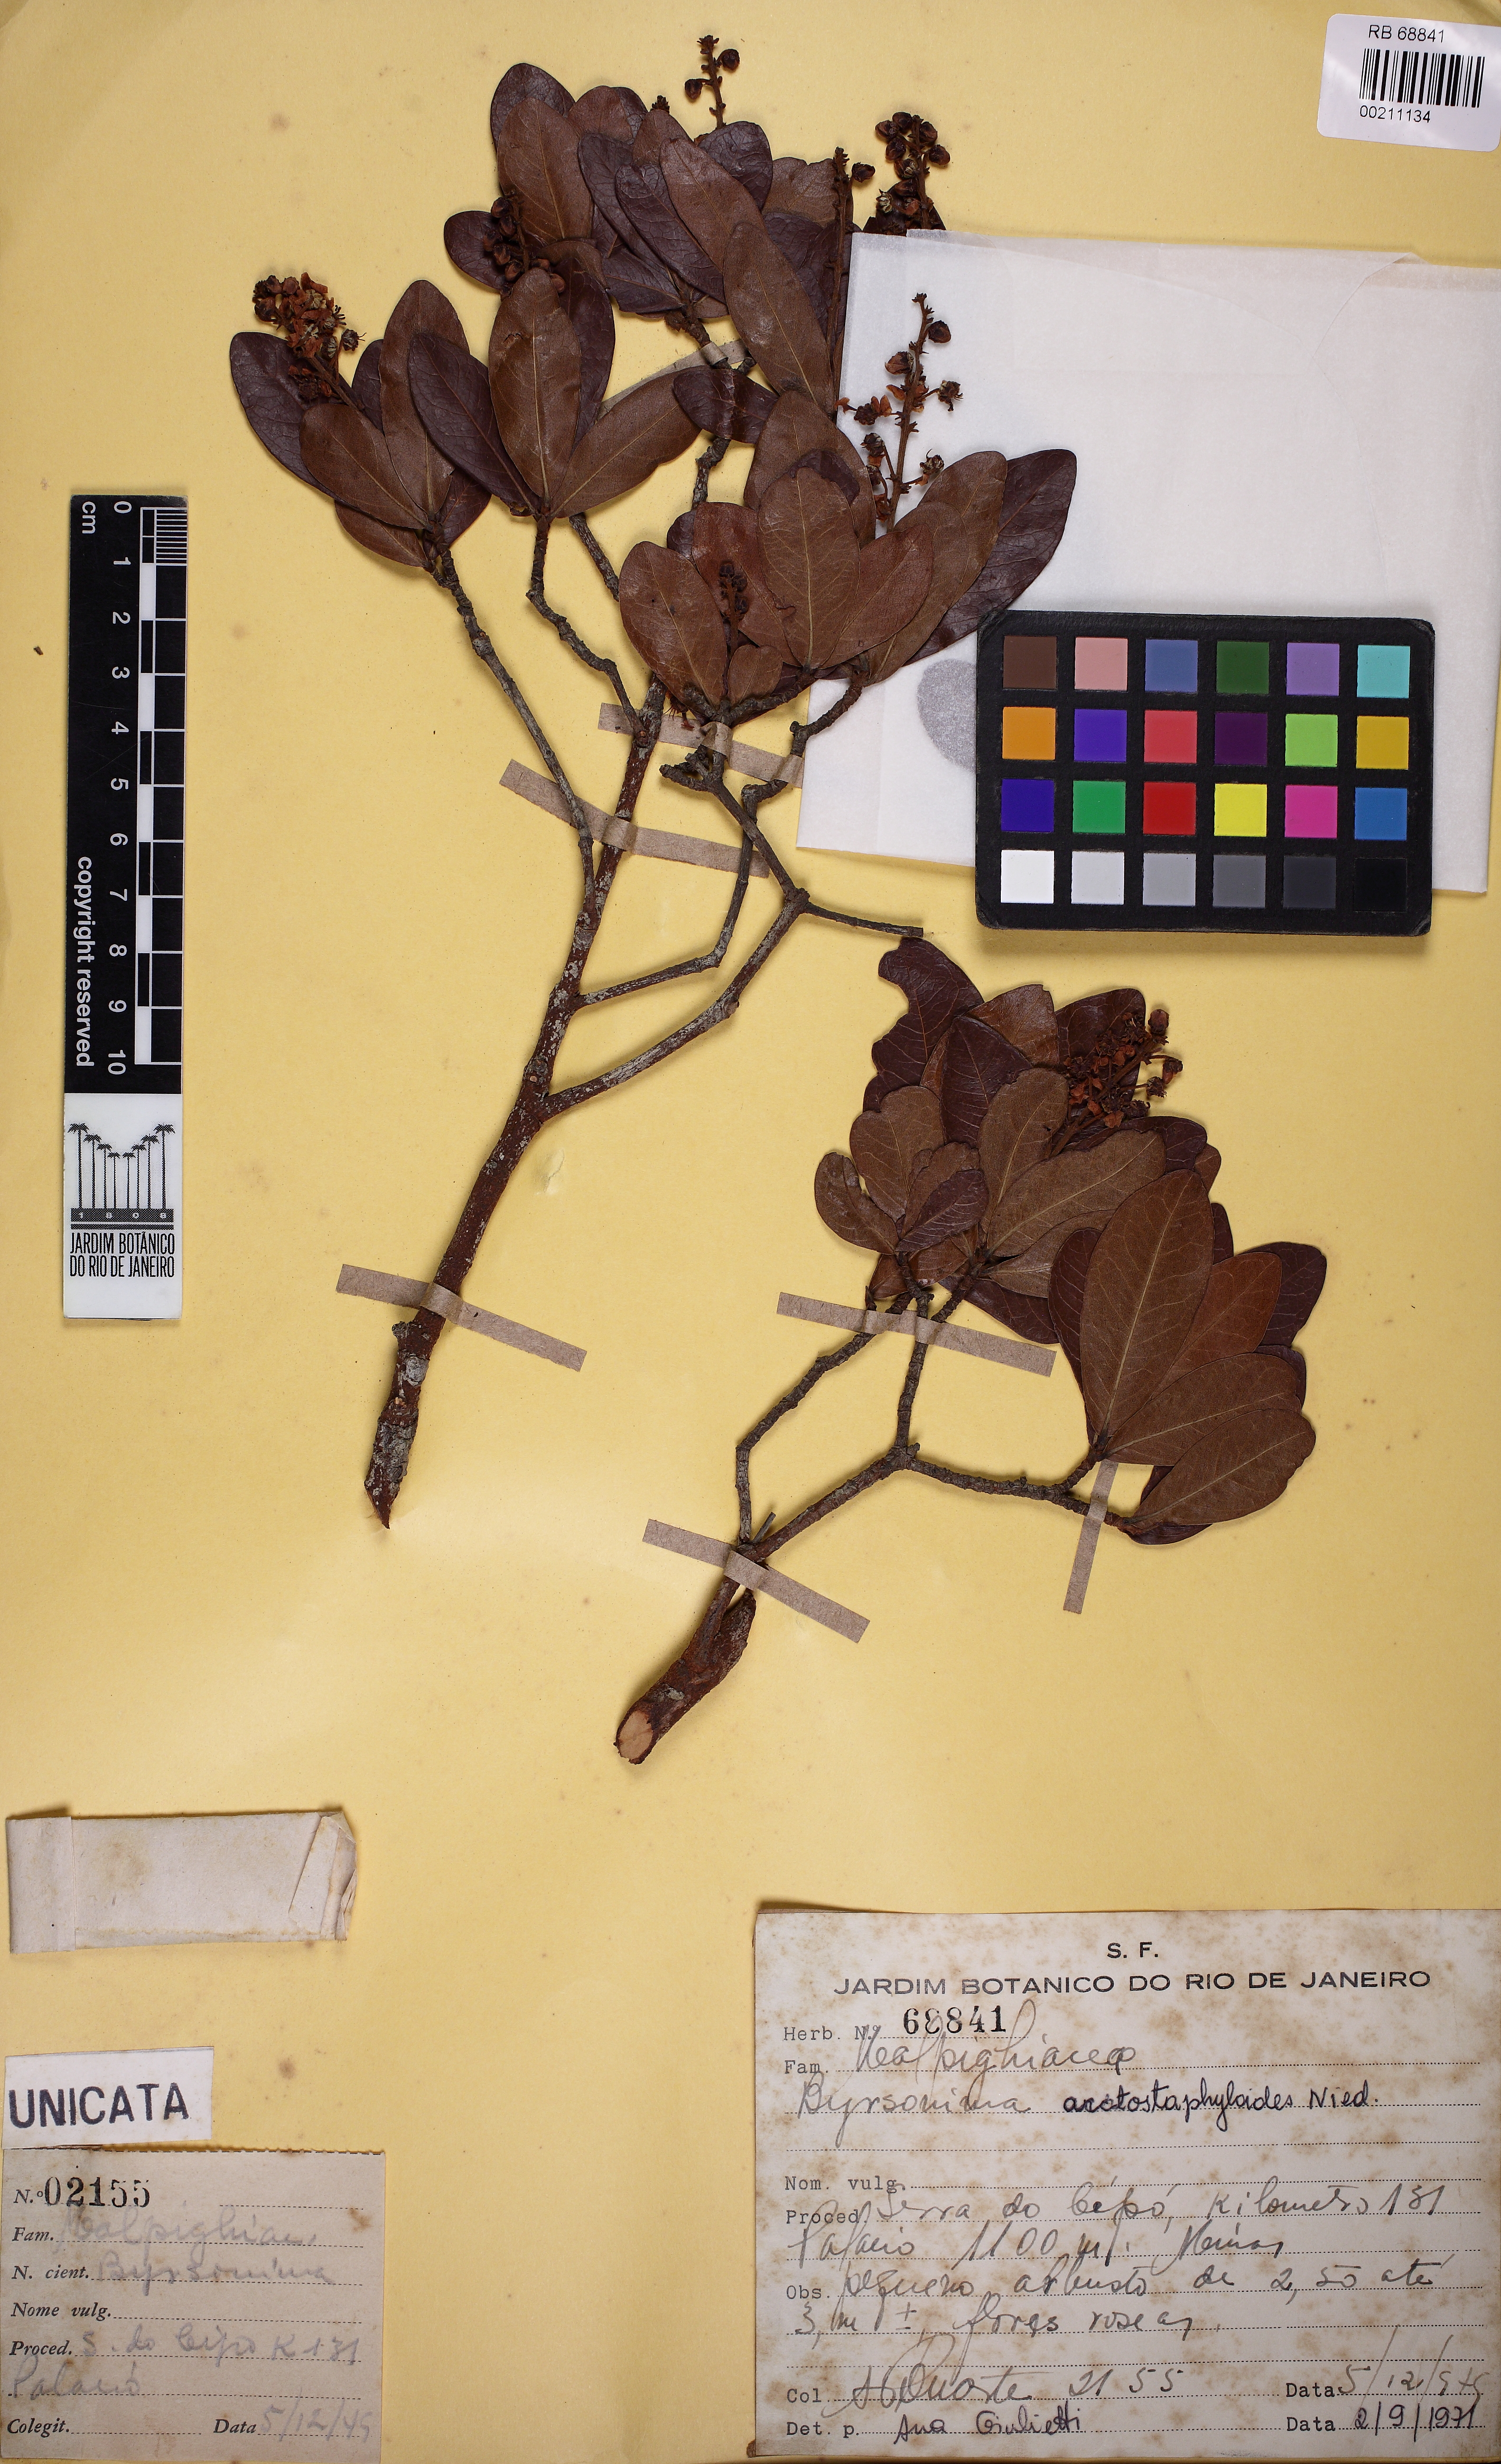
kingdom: Plantae
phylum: Tracheophyta
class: Magnoliopsida
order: Malpighiales
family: Malpighiaceae
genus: Byrsonima
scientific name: Byrsonima arctostaphyloides
